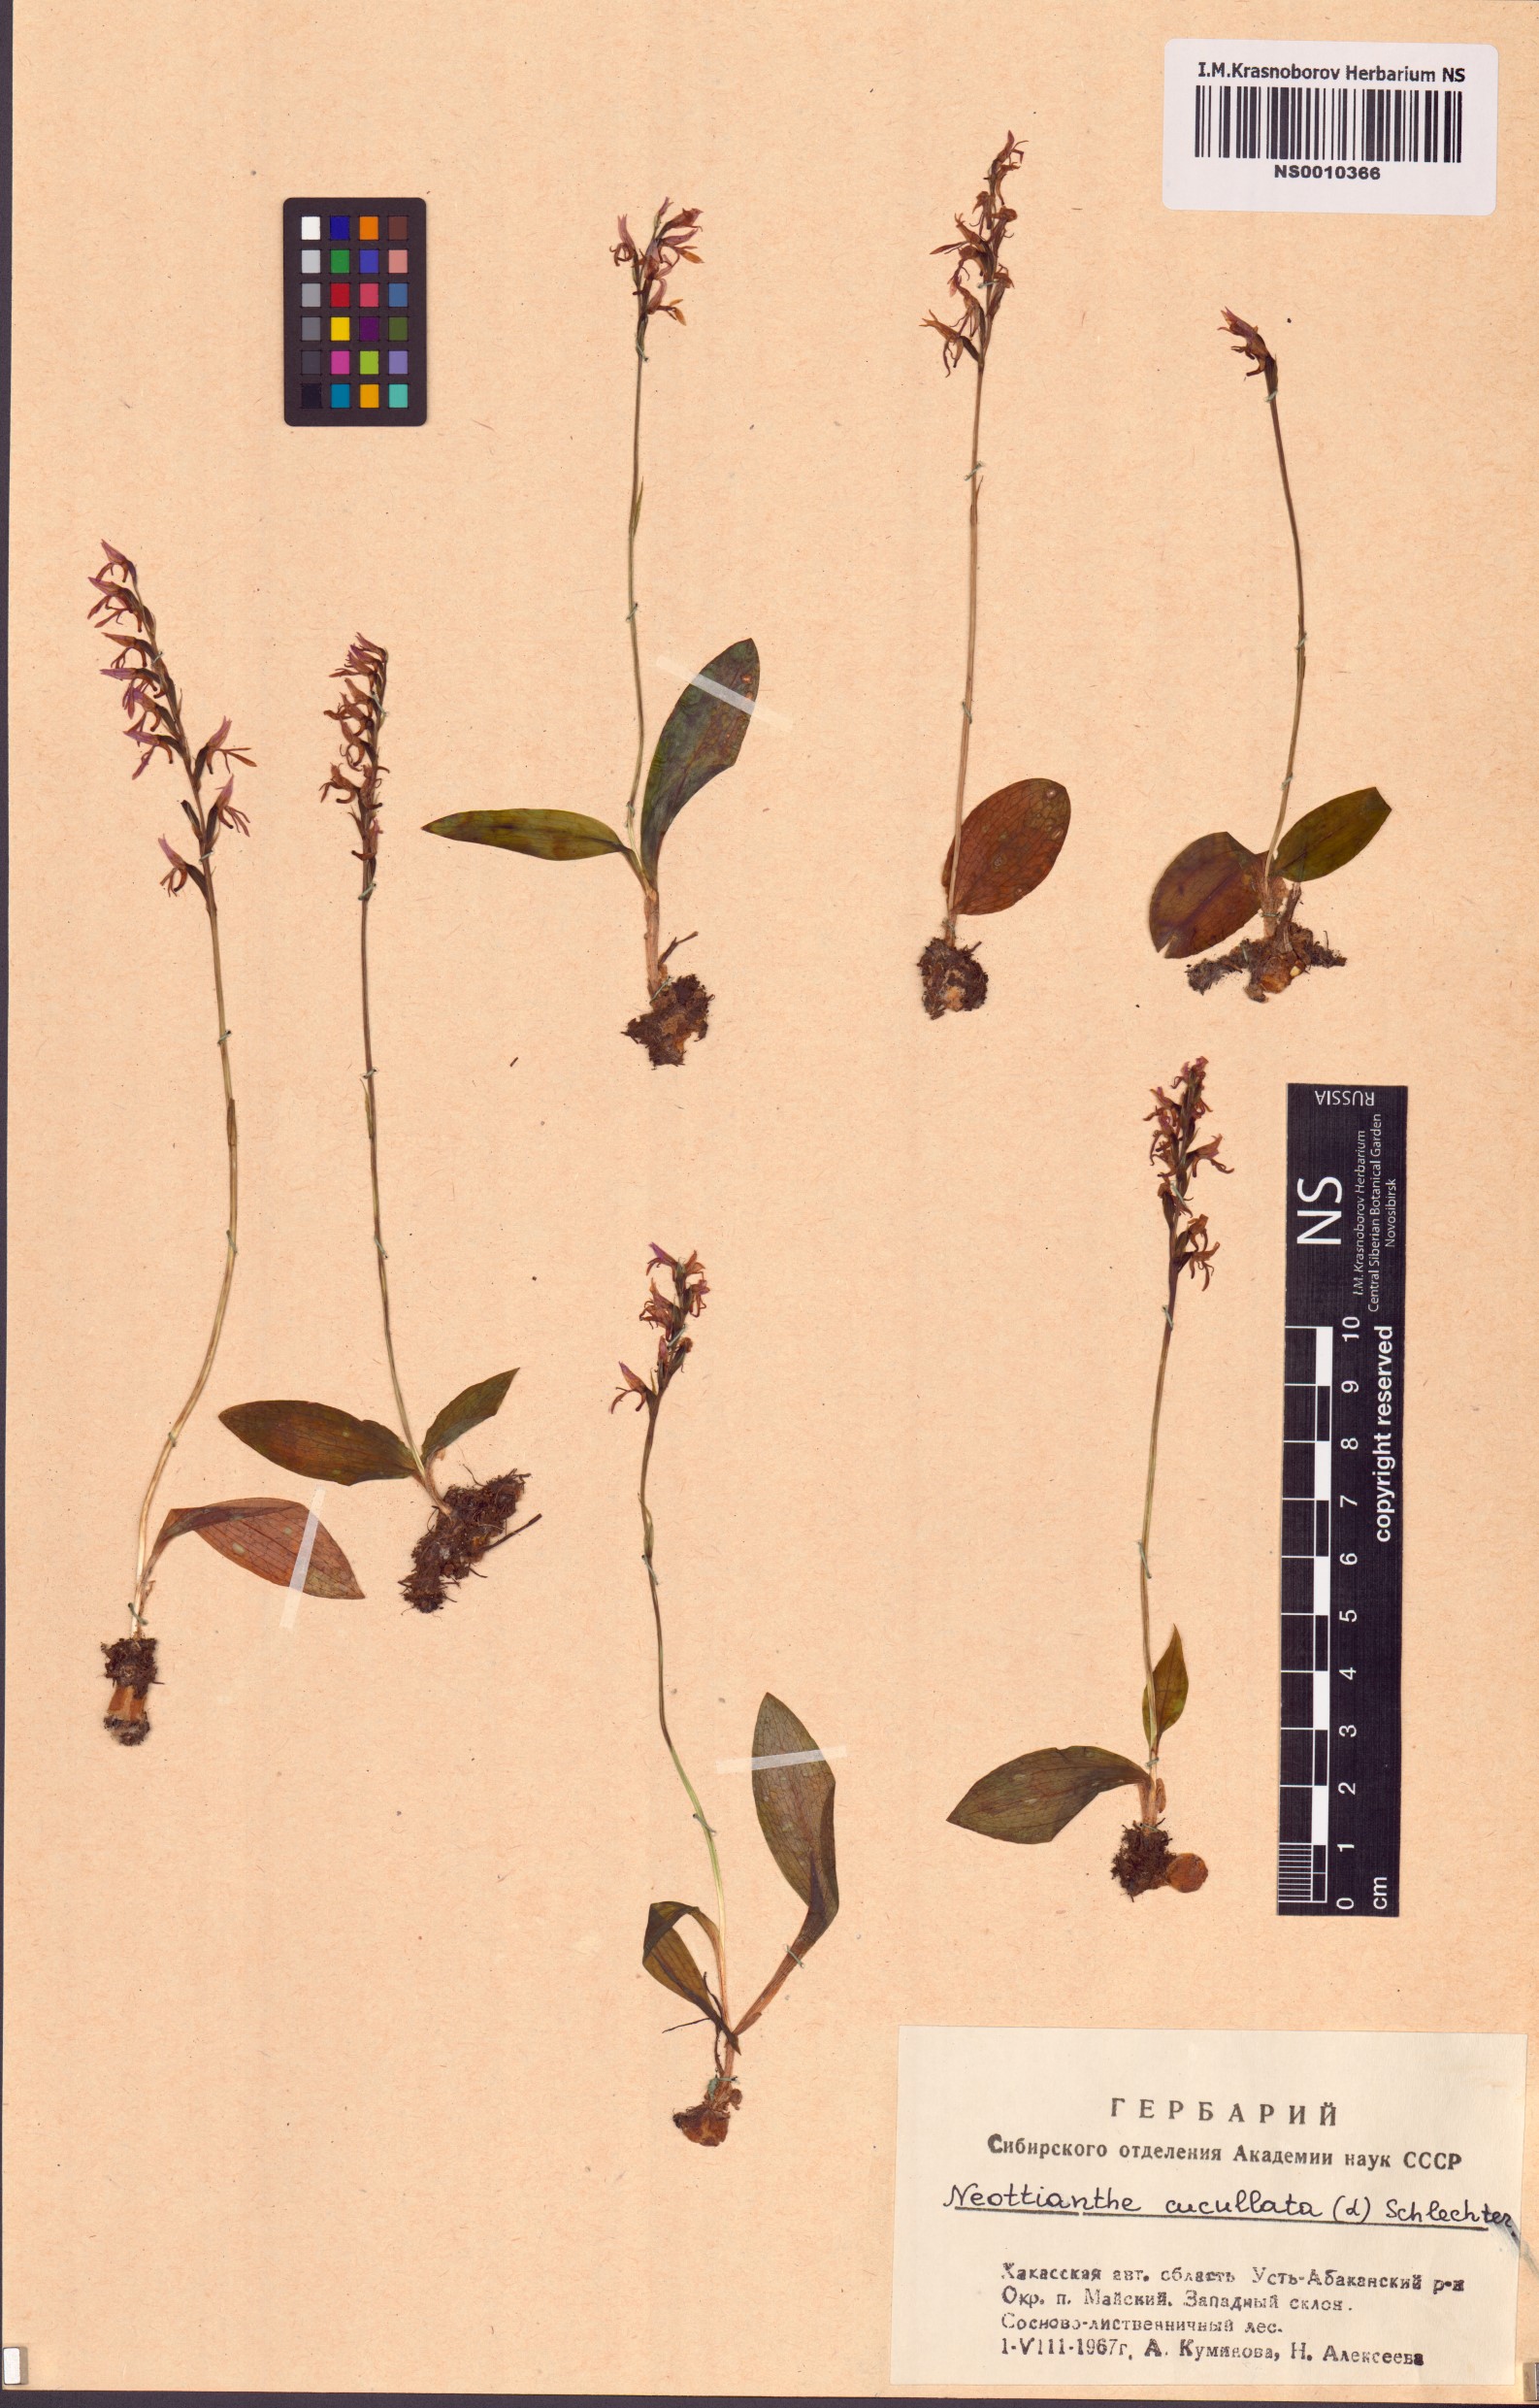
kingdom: Plantae
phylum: Tracheophyta
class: Liliopsida
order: Asparagales
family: Orchidaceae
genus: Hemipilia
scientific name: Hemipilia cucullata
